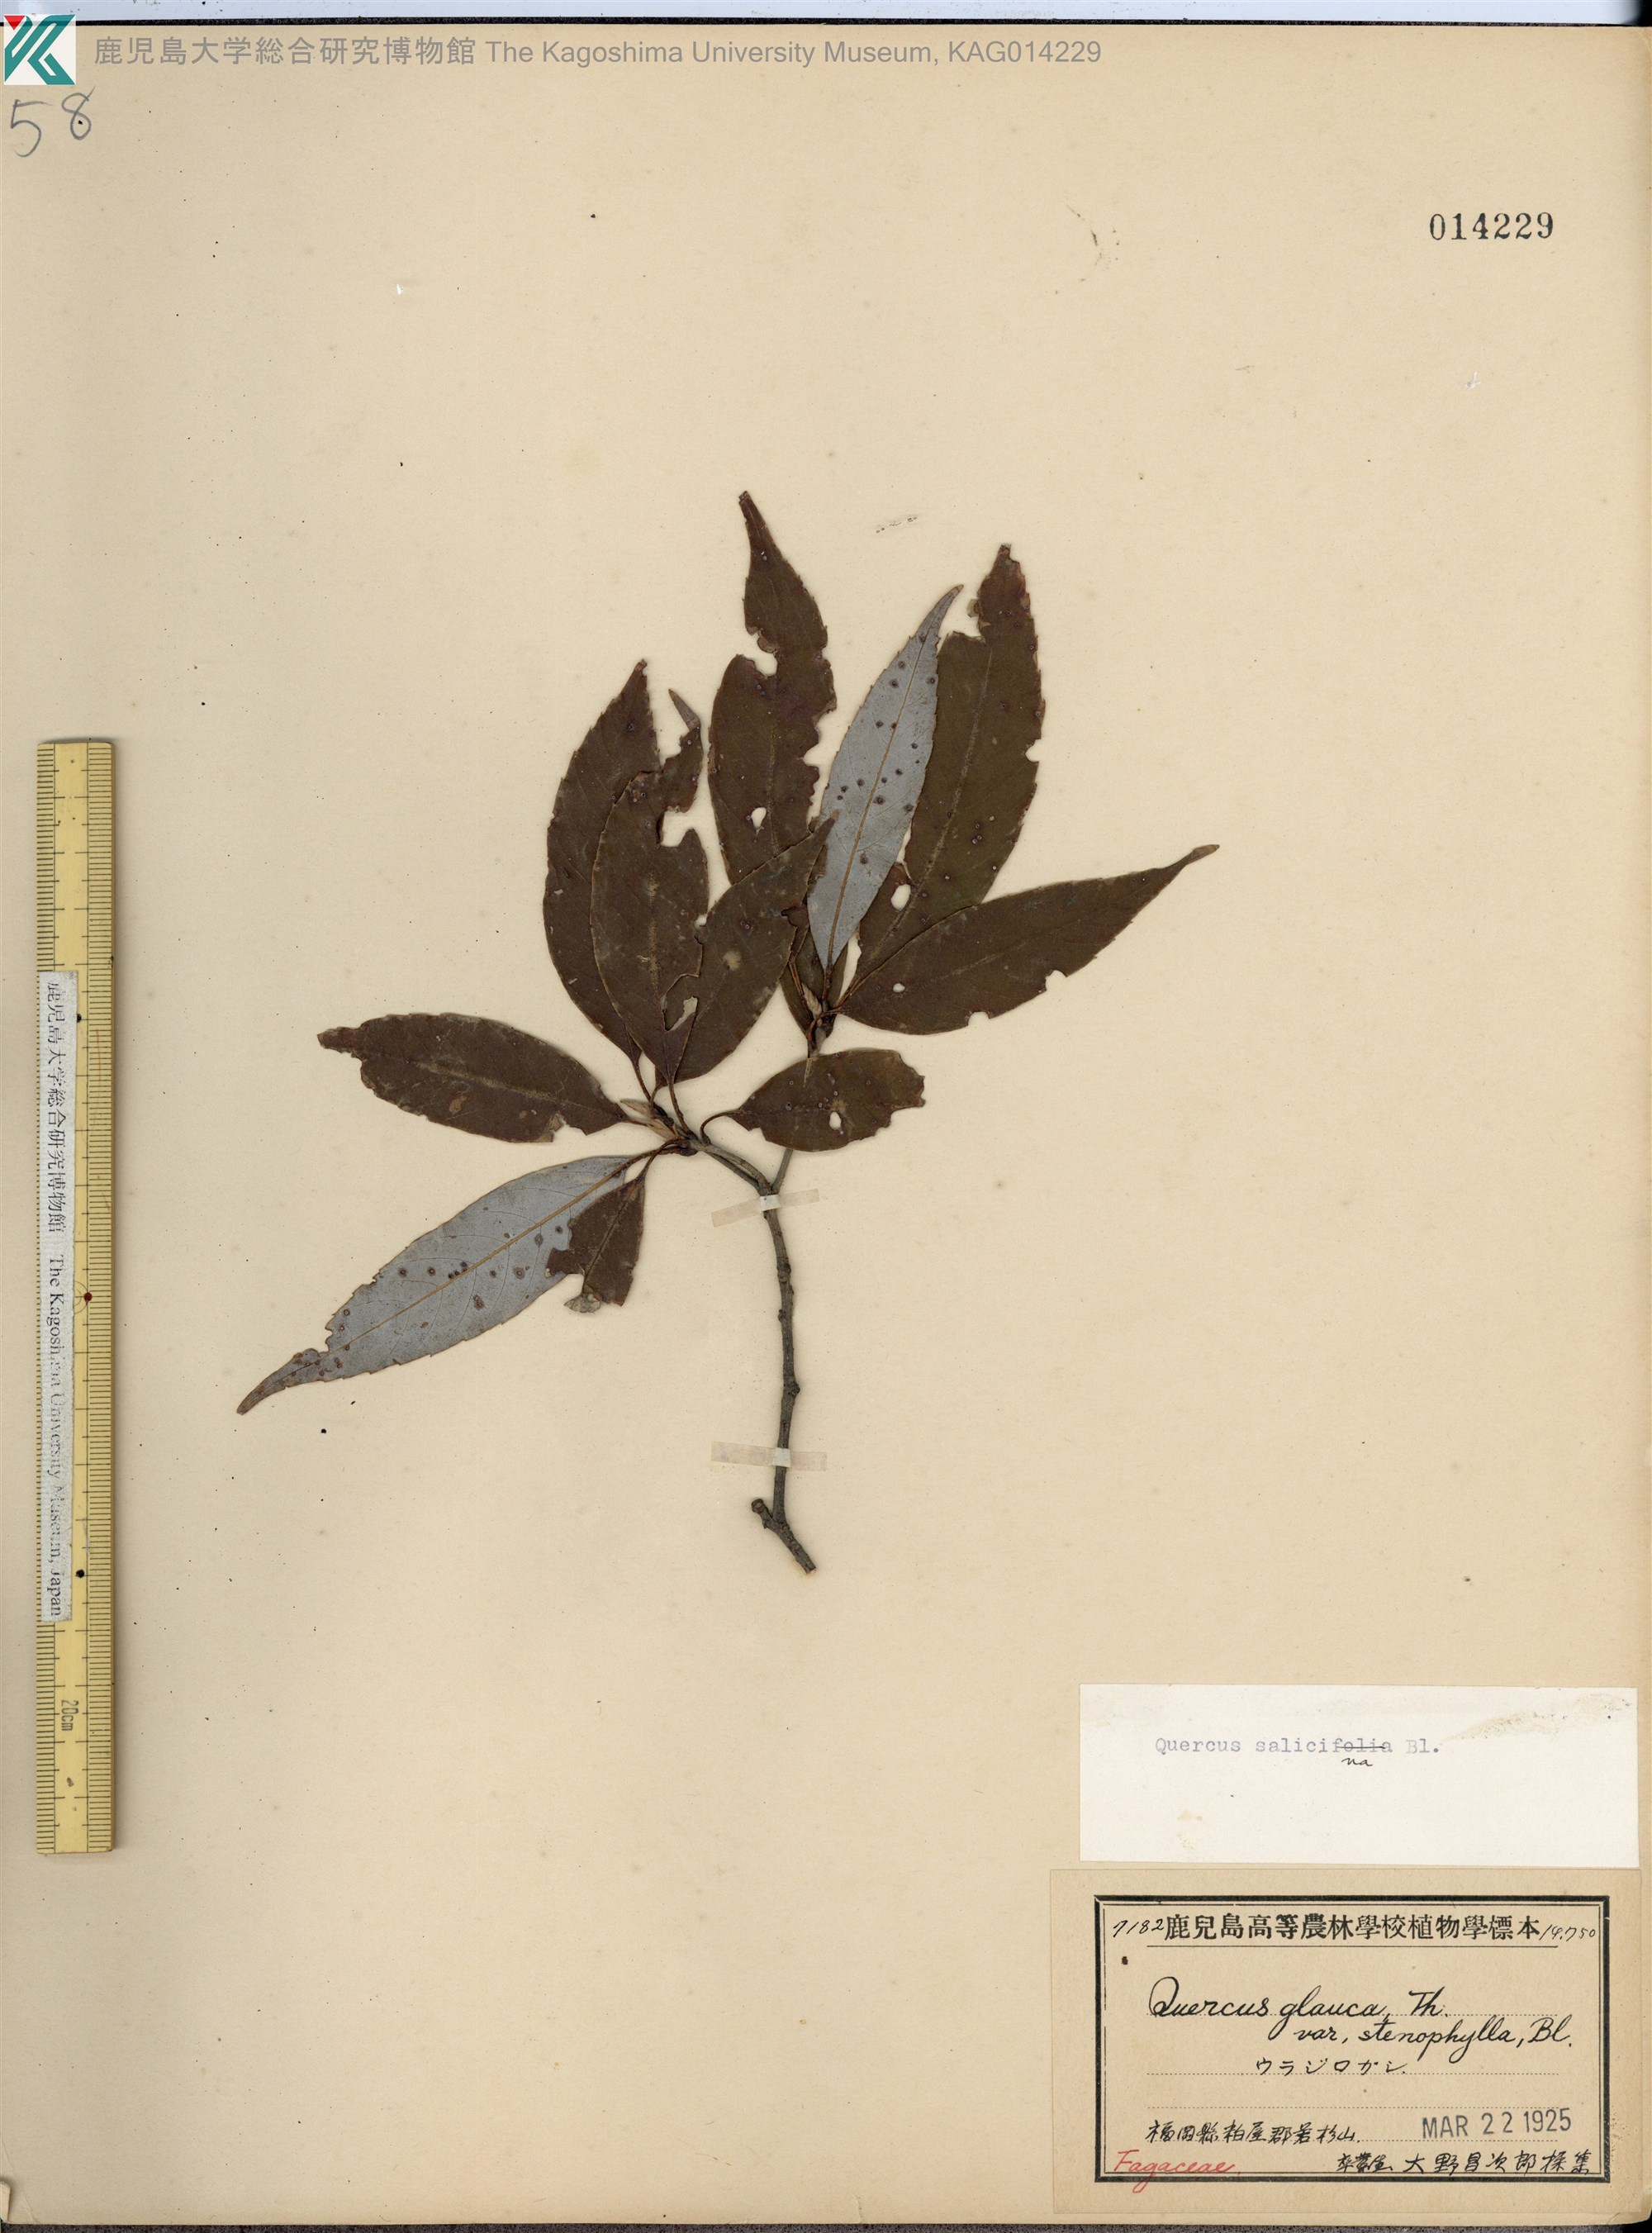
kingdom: Plantae
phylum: Tracheophyta
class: Magnoliopsida
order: Fagales
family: Fagaceae
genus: Quercus
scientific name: Quercus salicina
